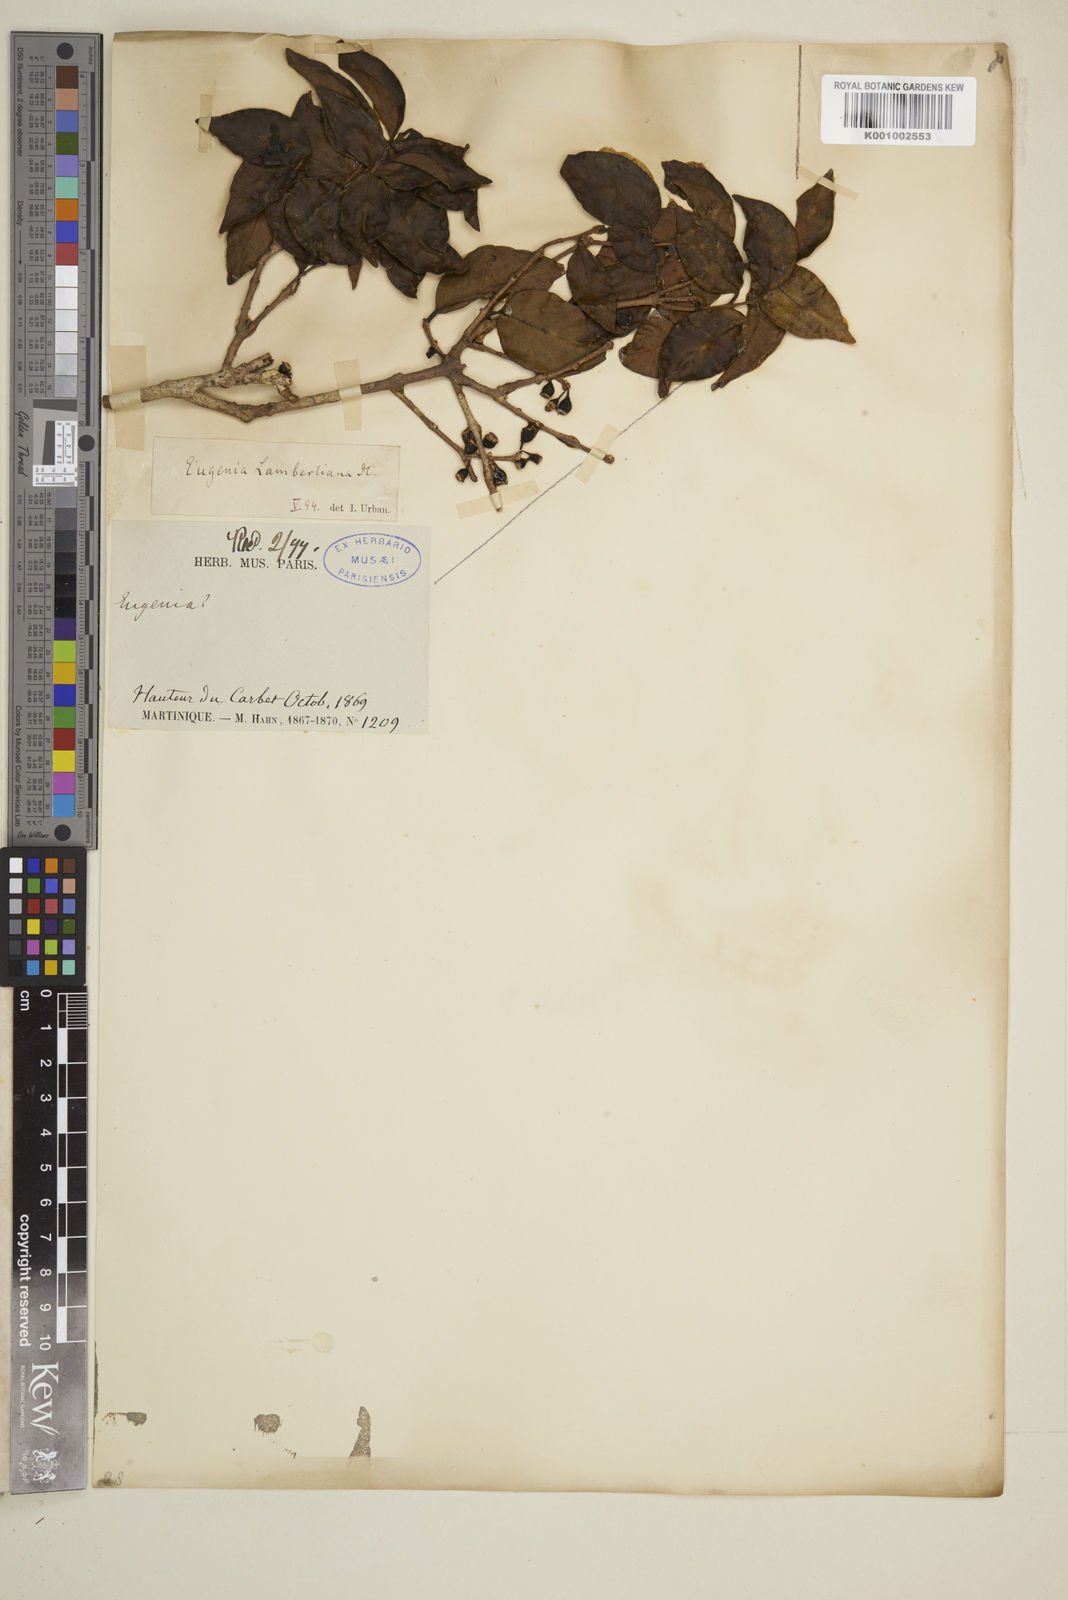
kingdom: Plantae
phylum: Tracheophyta
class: Magnoliopsida
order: Myrtales
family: Myrtaceae
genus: Eugenia
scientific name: Eugenia lambertiana
